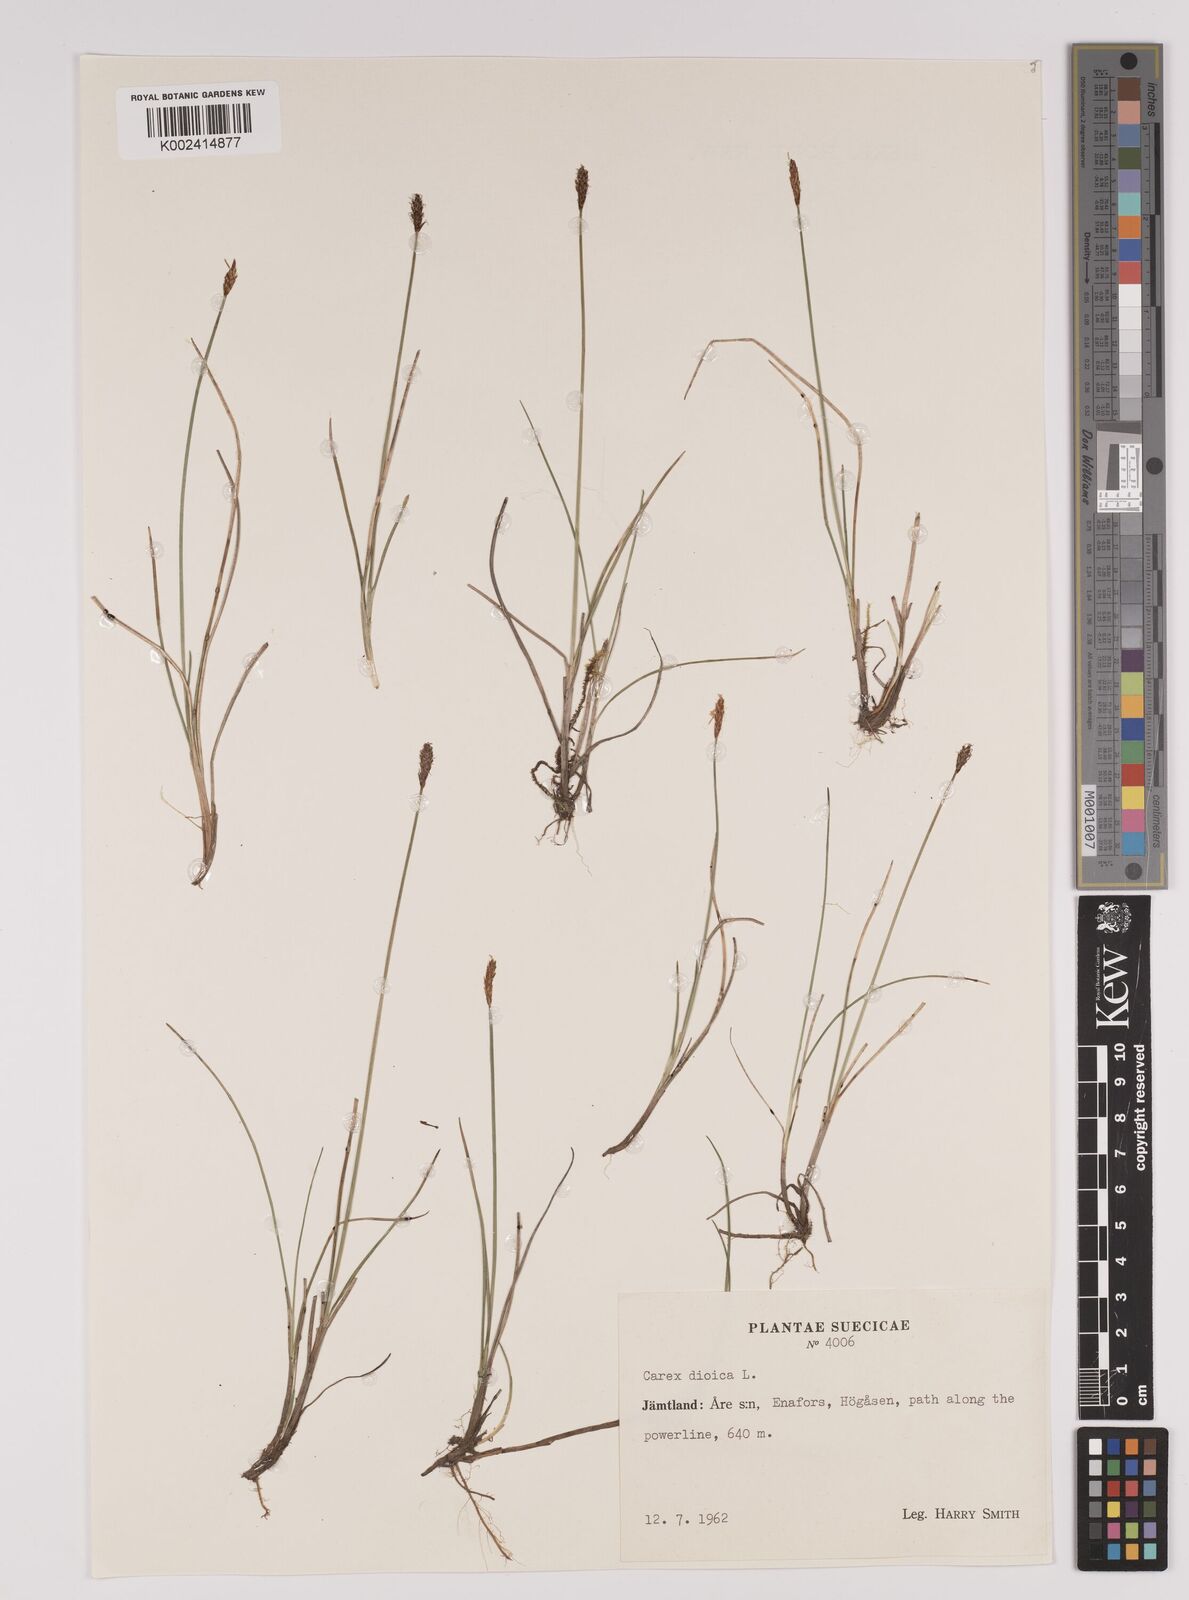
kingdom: Plantae
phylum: Tracheophyta
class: Liliopsida
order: Poales
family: Cyperaceae
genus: Carex
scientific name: Carex dioica
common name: Dioecious sedge
